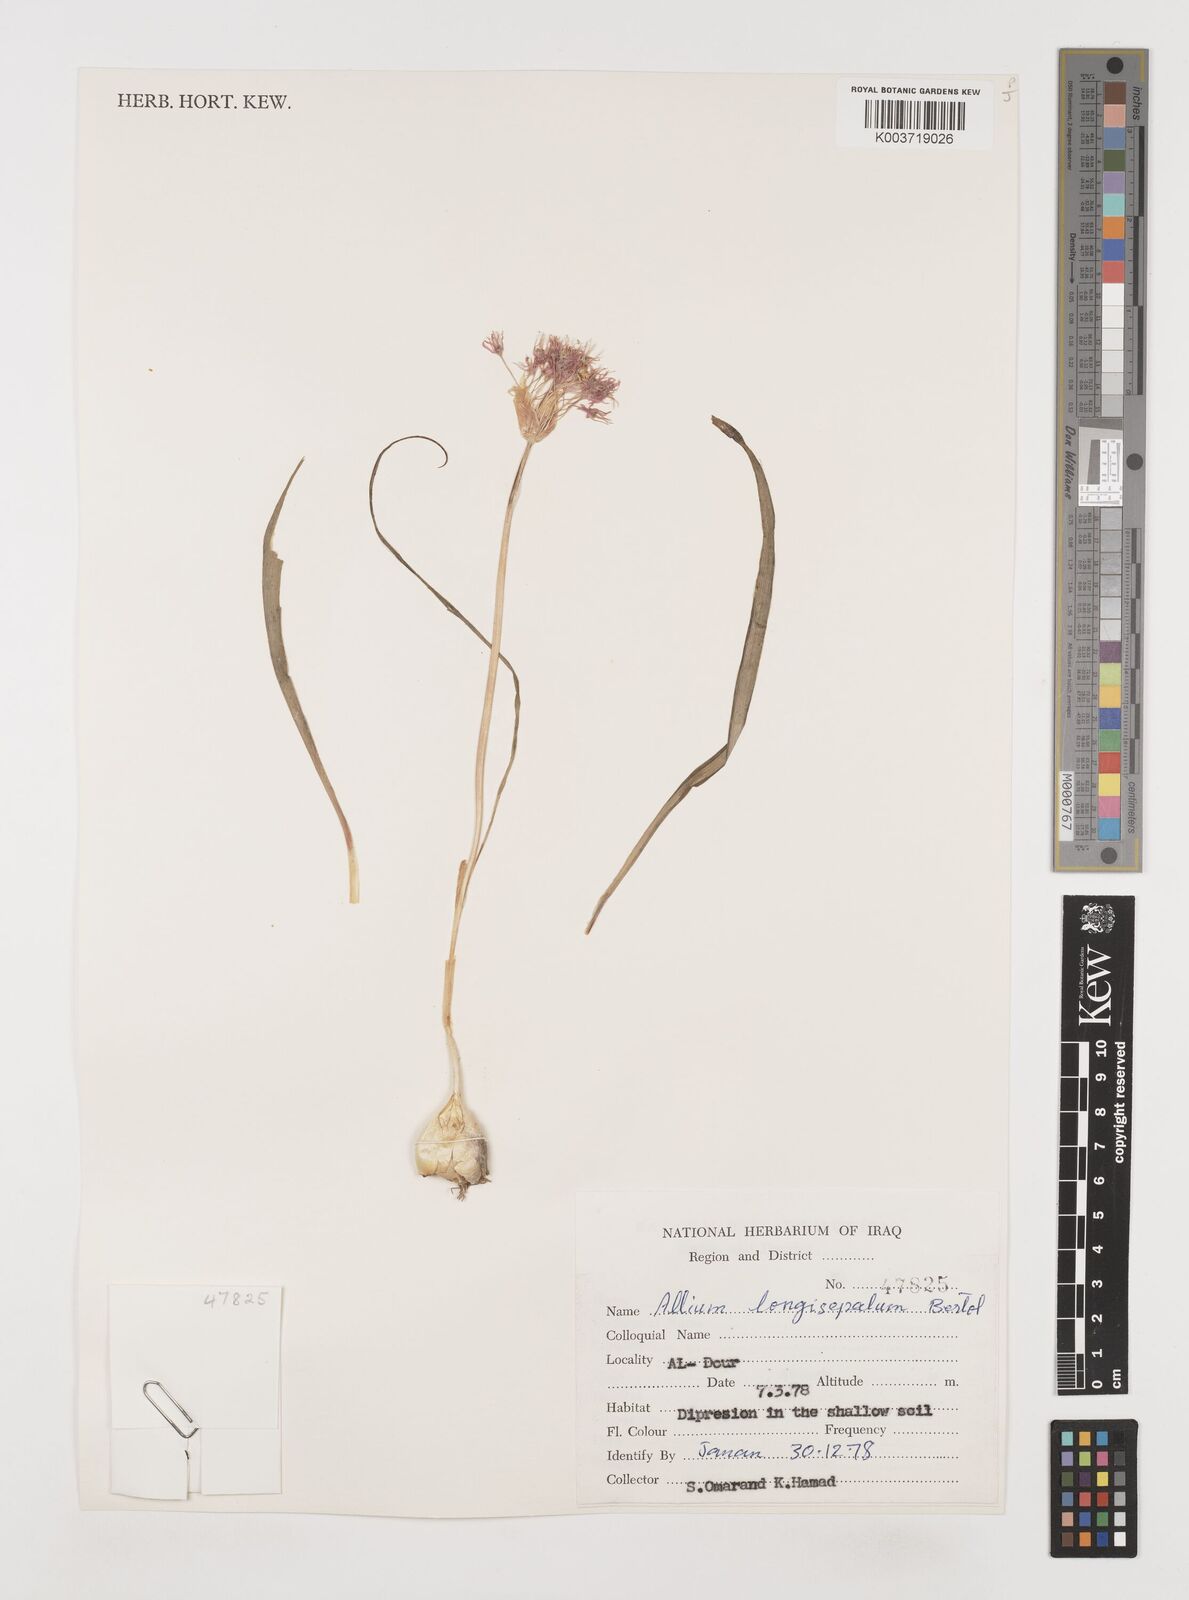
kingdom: Plantae
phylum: Tracheophyta
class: Liliopsida
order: Asparagales
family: Amaryllidaceae
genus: Allium
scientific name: Allium longisepalum
